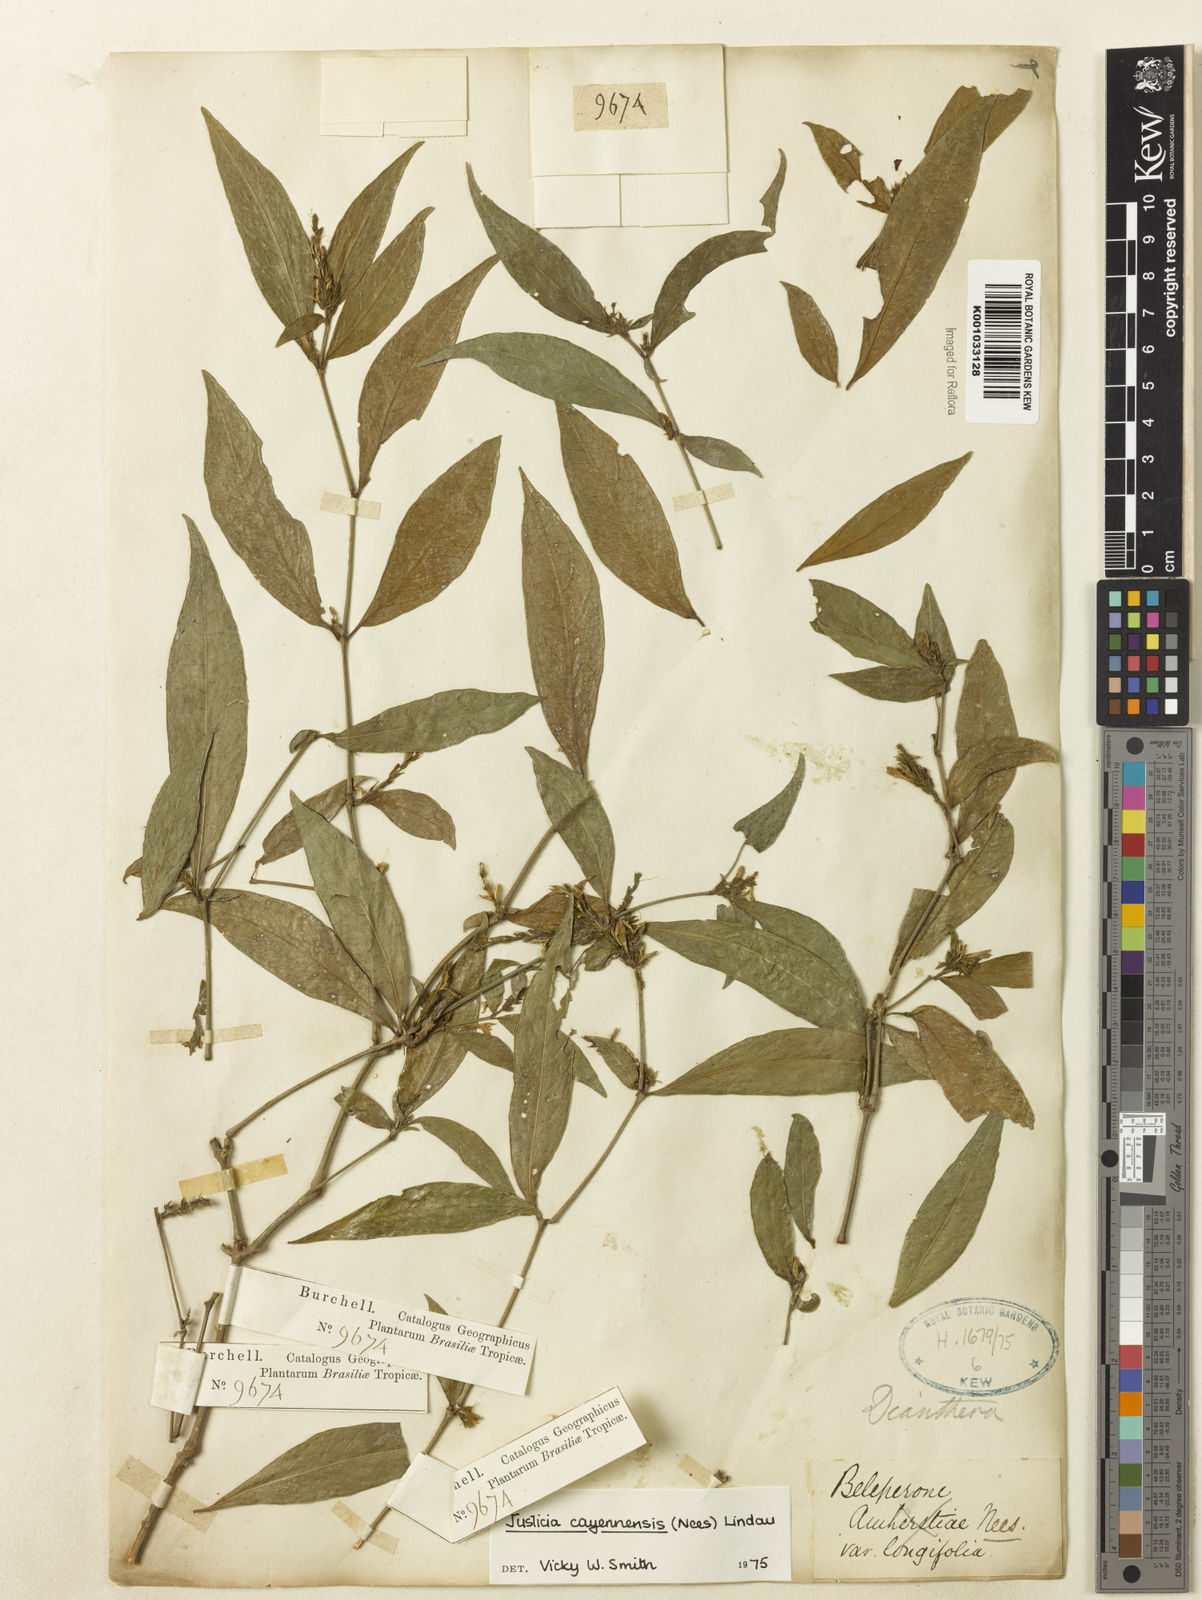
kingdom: Plantae
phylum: Tracheophyta
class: Magnoliopsida
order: Lamiales
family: Acanthaceae
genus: Dianthera
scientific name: Dianthera cayennensis
